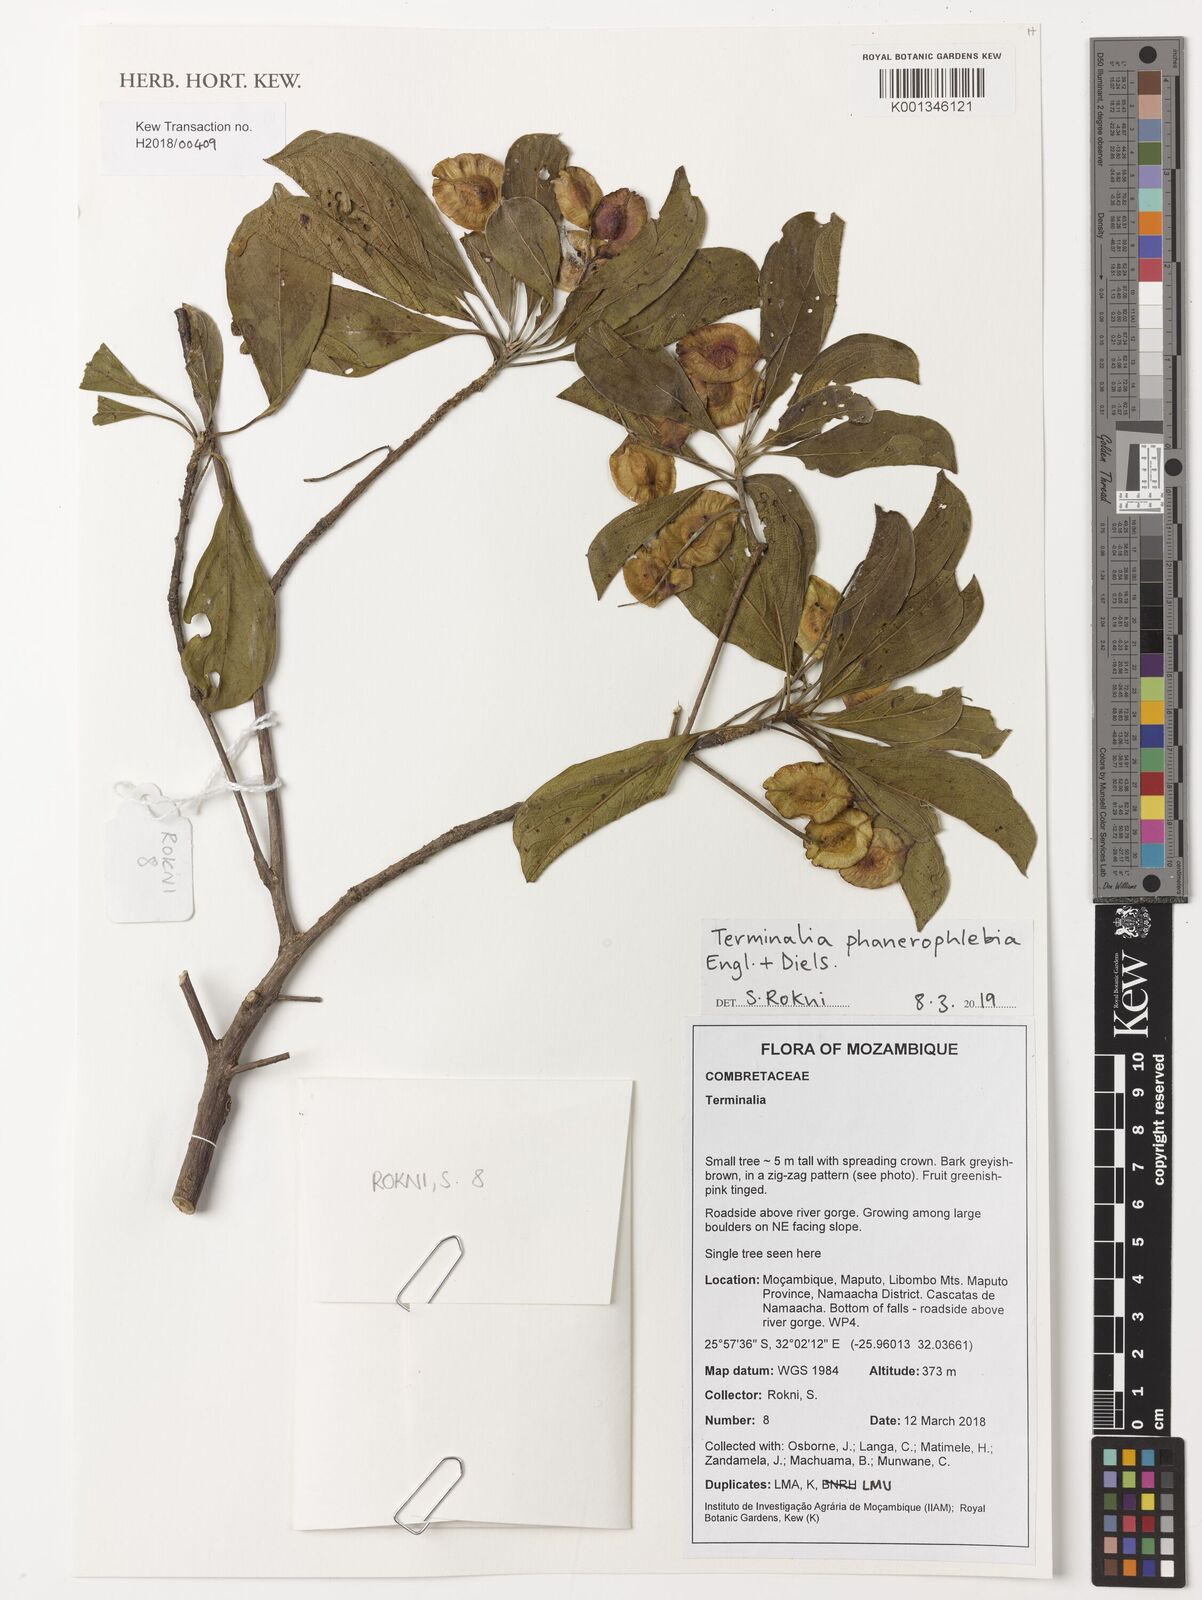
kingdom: Plantae
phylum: Tracheophyta
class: Magnoliopsida
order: Myrtales
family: Combretaceae
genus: Terminalia
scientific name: Terminalia phanerophlebia
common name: Lebombo cluster-leaf
